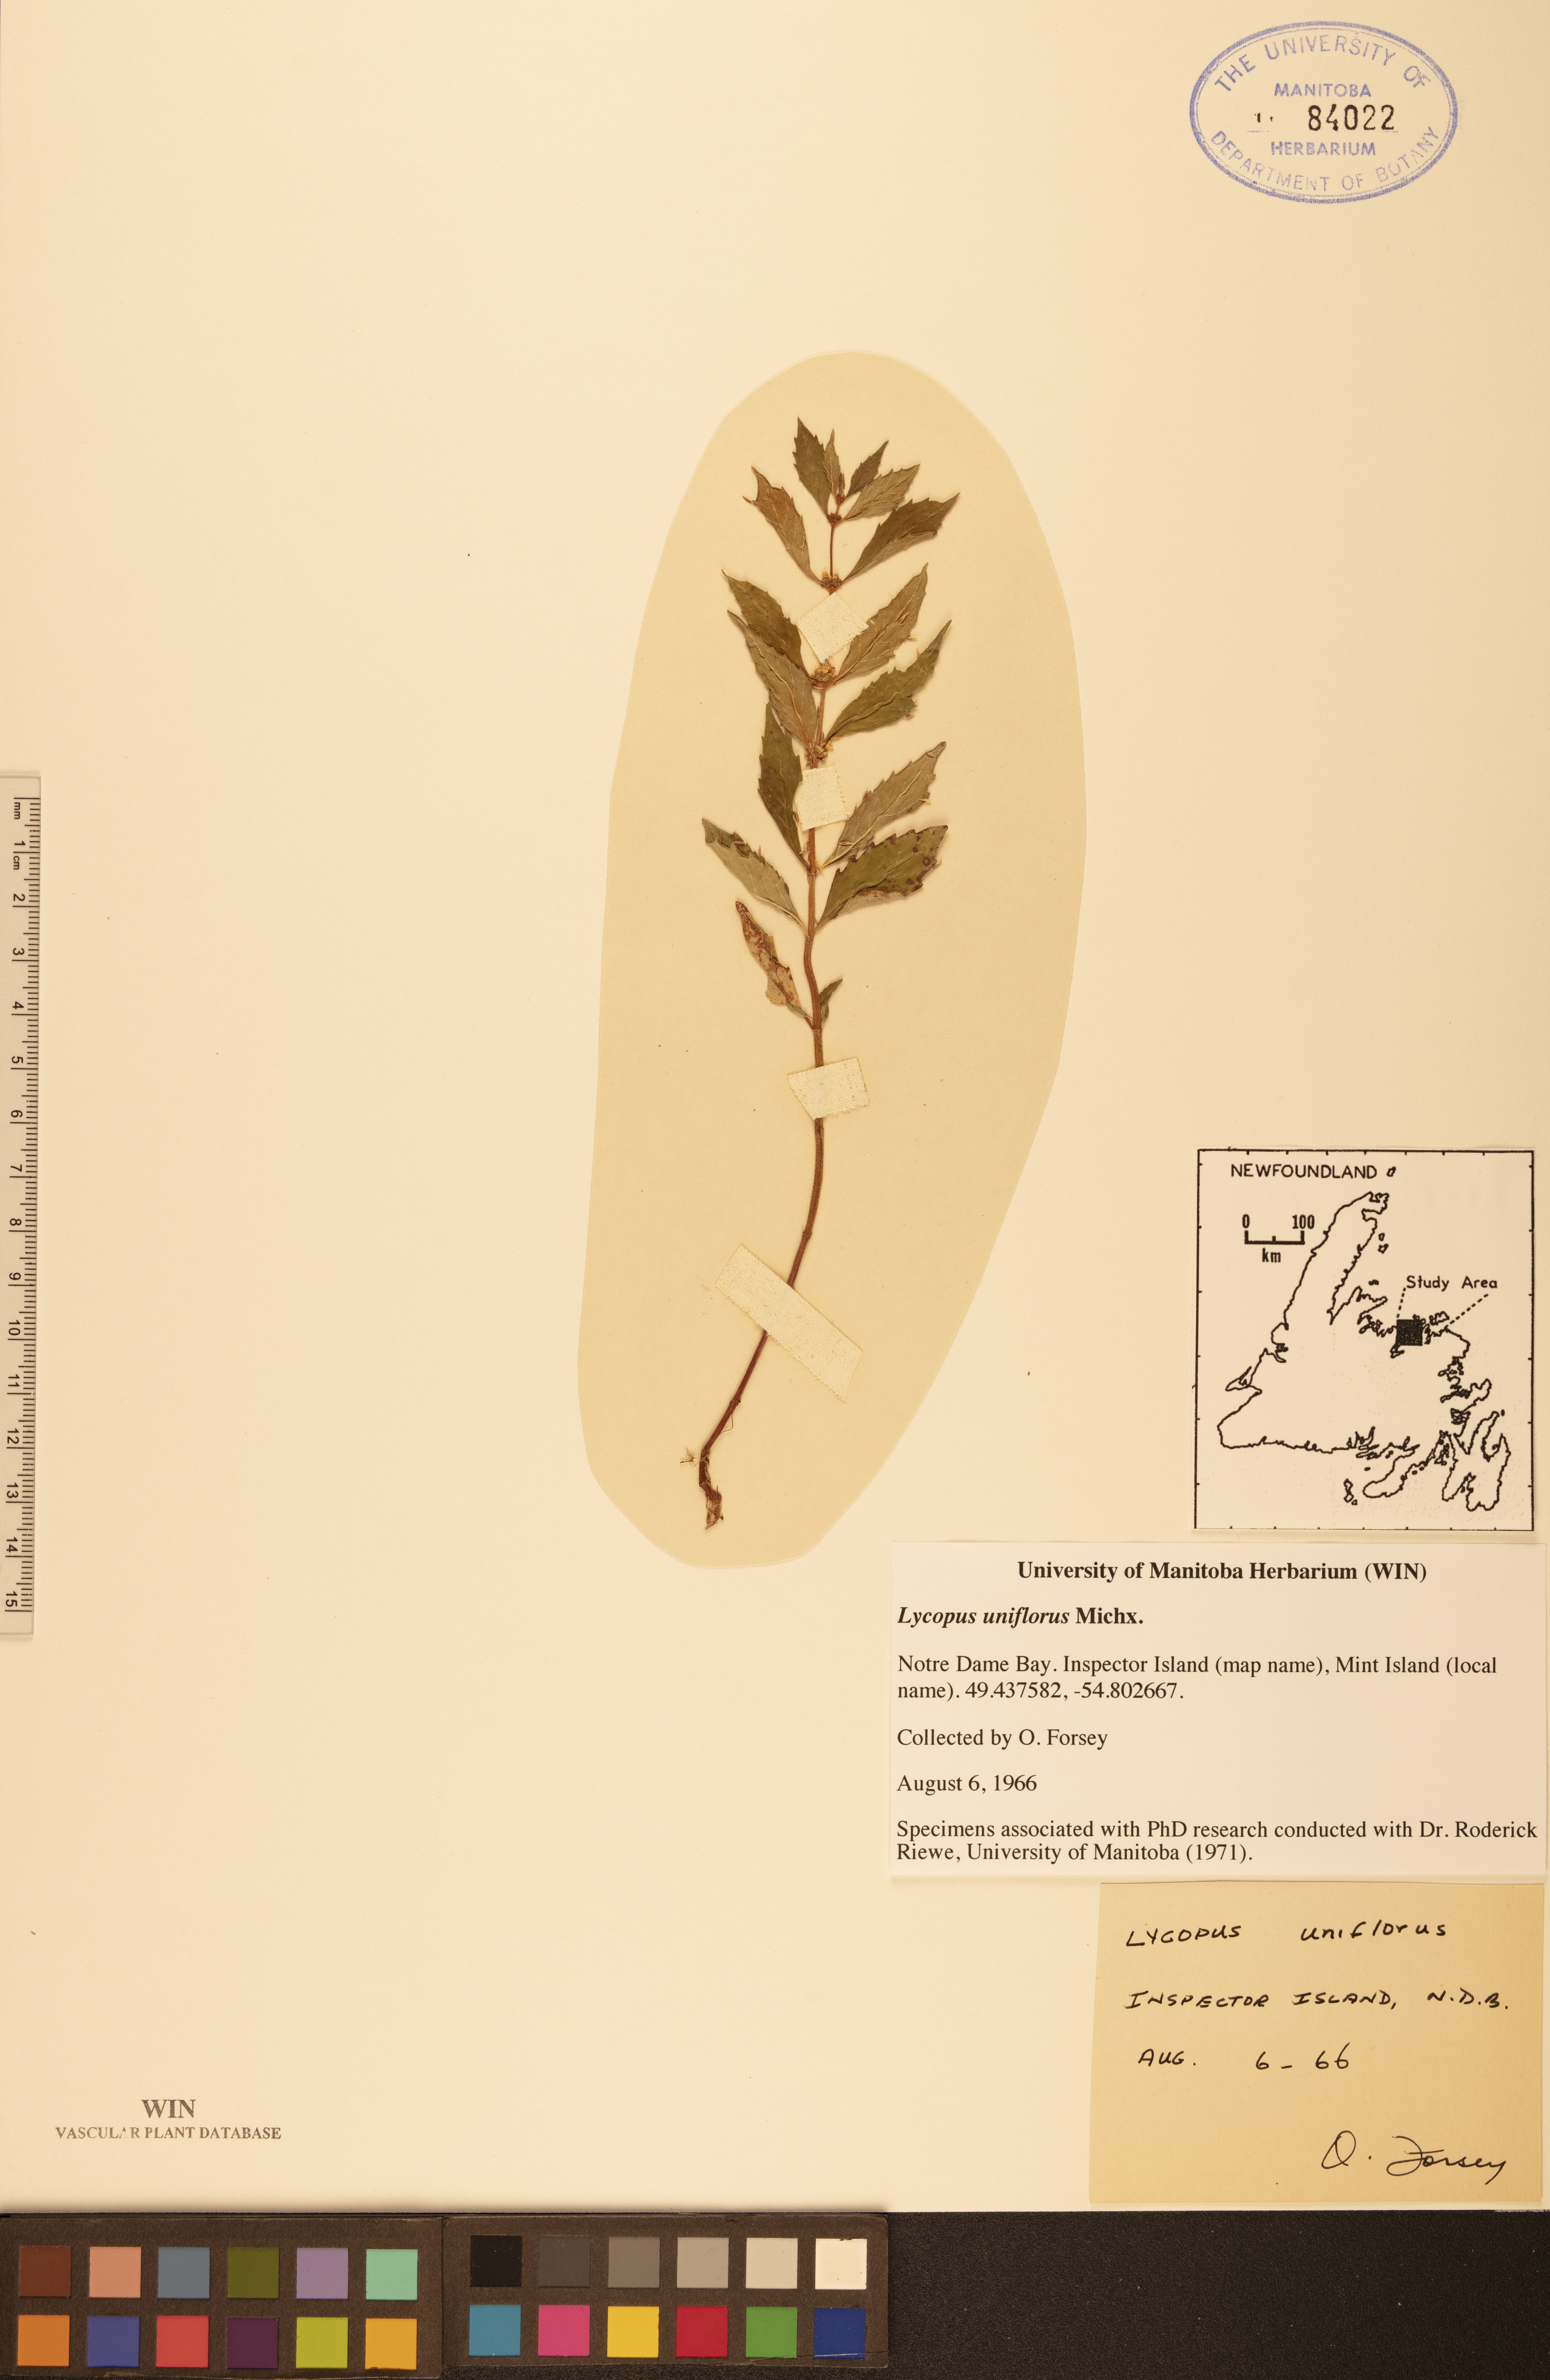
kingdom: Plantae
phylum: Tracheophyta
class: Magnoliopsida
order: Lamiales
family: Lamiaceae
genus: Lycopus
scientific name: Lycopus uniflorus
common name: Northern bugleweed
